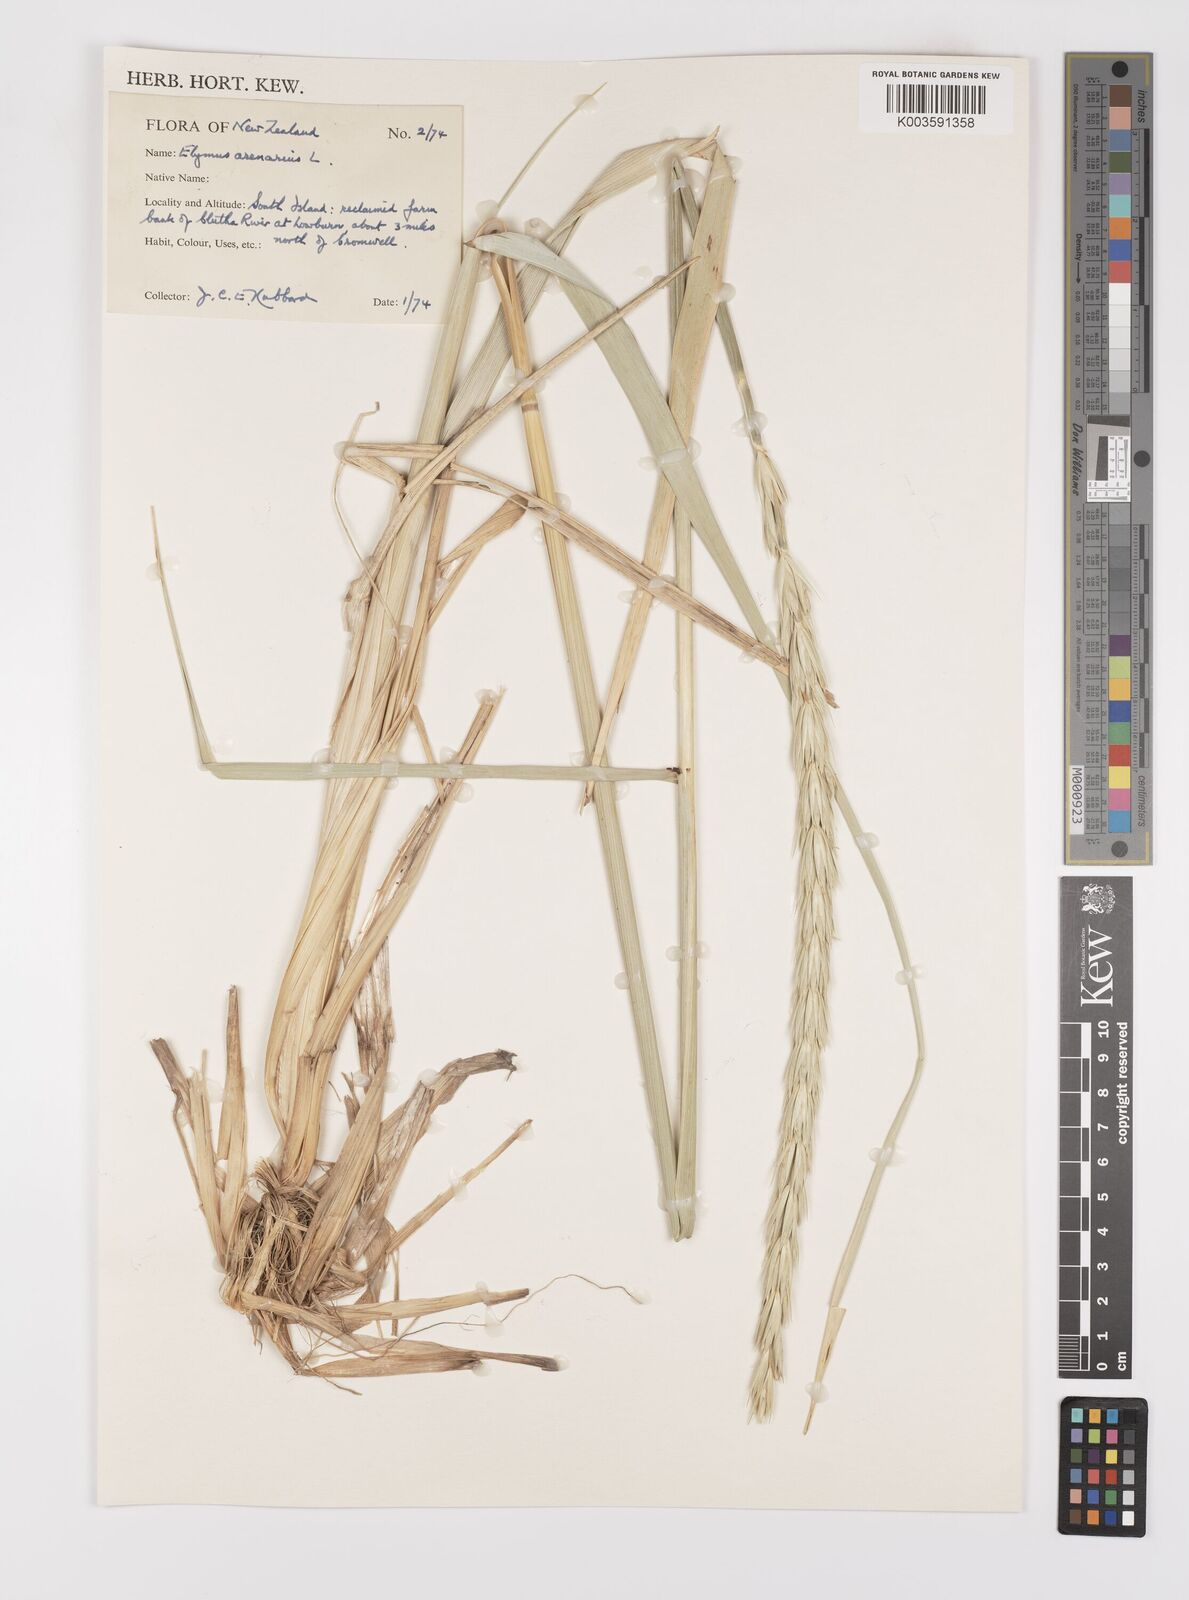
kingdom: Plantae
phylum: Tracheophyta
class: Liliopsida
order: Poales
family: Poaceae
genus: Leymus
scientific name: Leymus arenarius
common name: Lyme-grass
